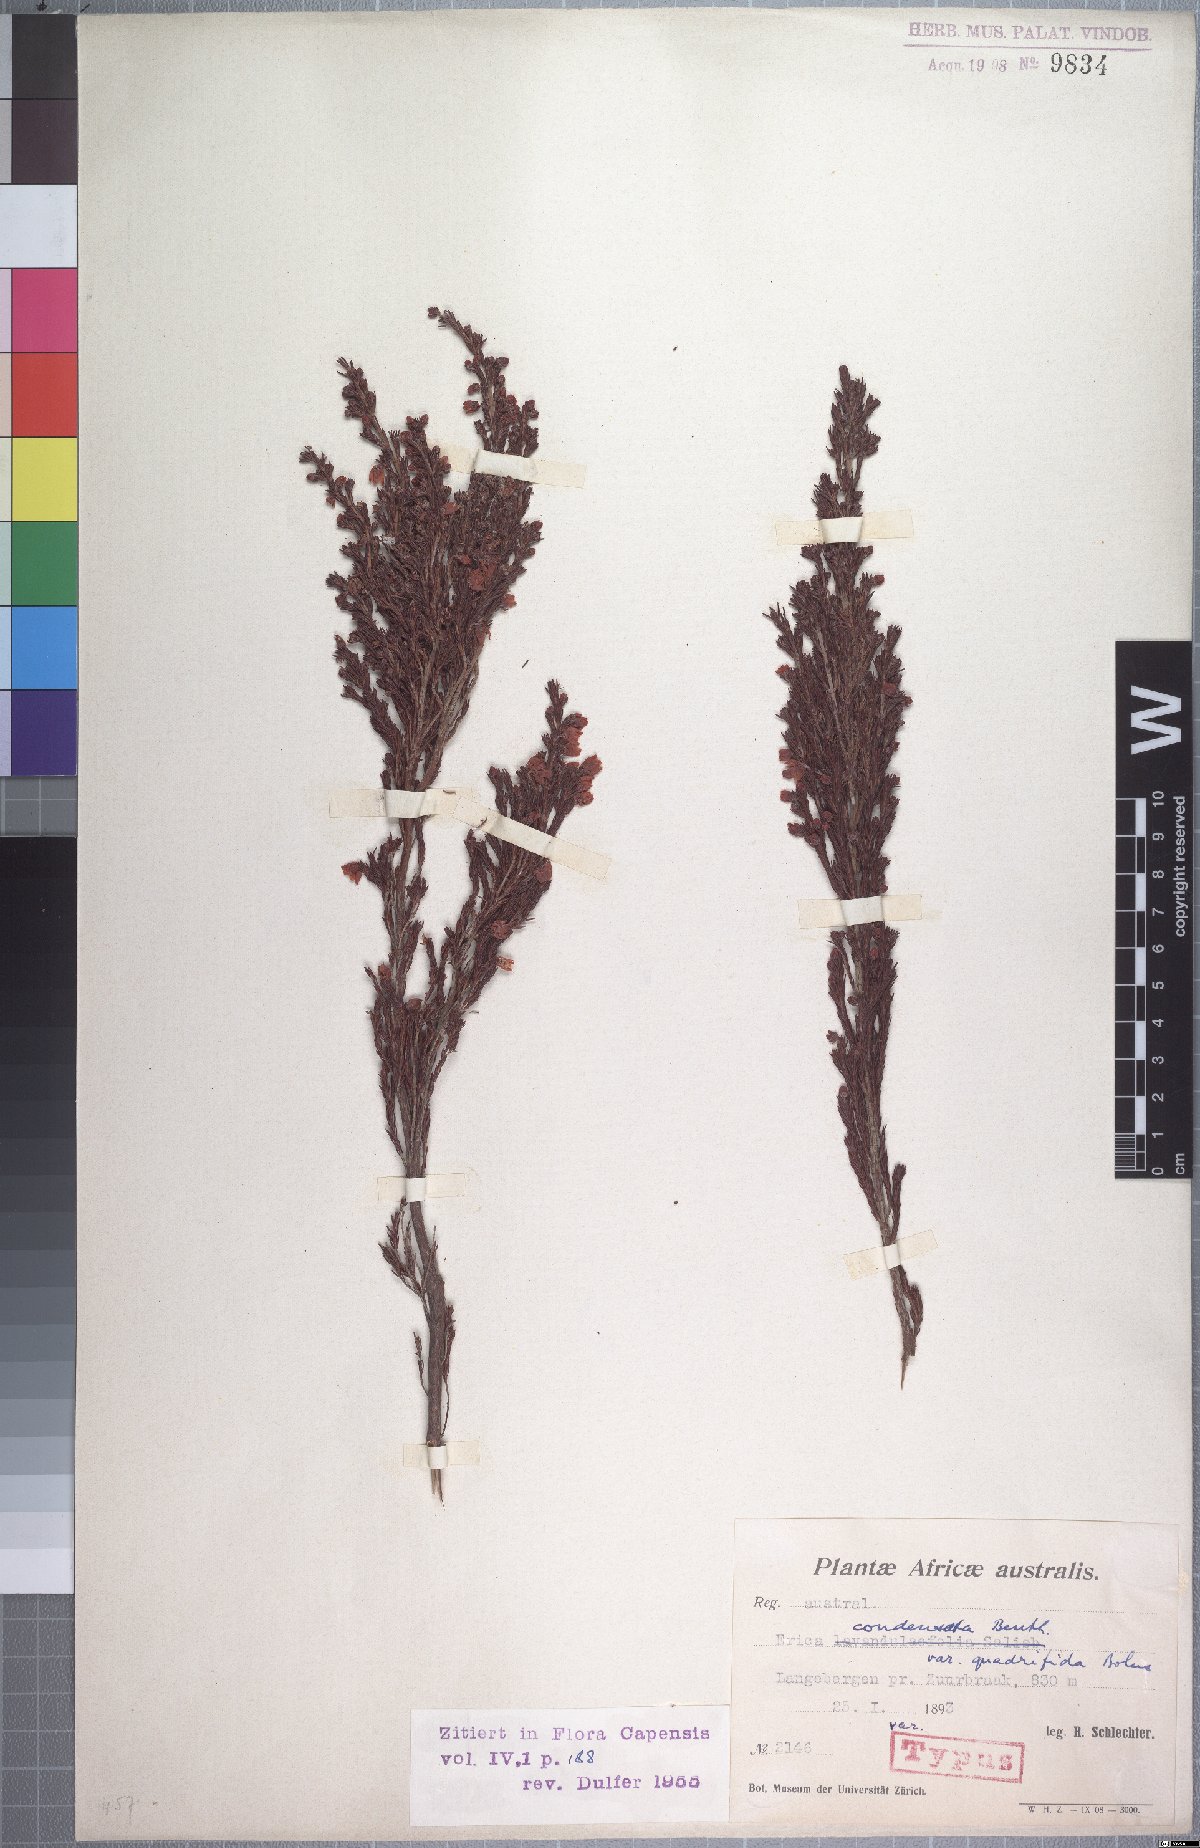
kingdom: Plantae
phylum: Tracheophyta
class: Magnoliopsida
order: Ericales
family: Ericaceae
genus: Erica
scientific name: Erica condensata
